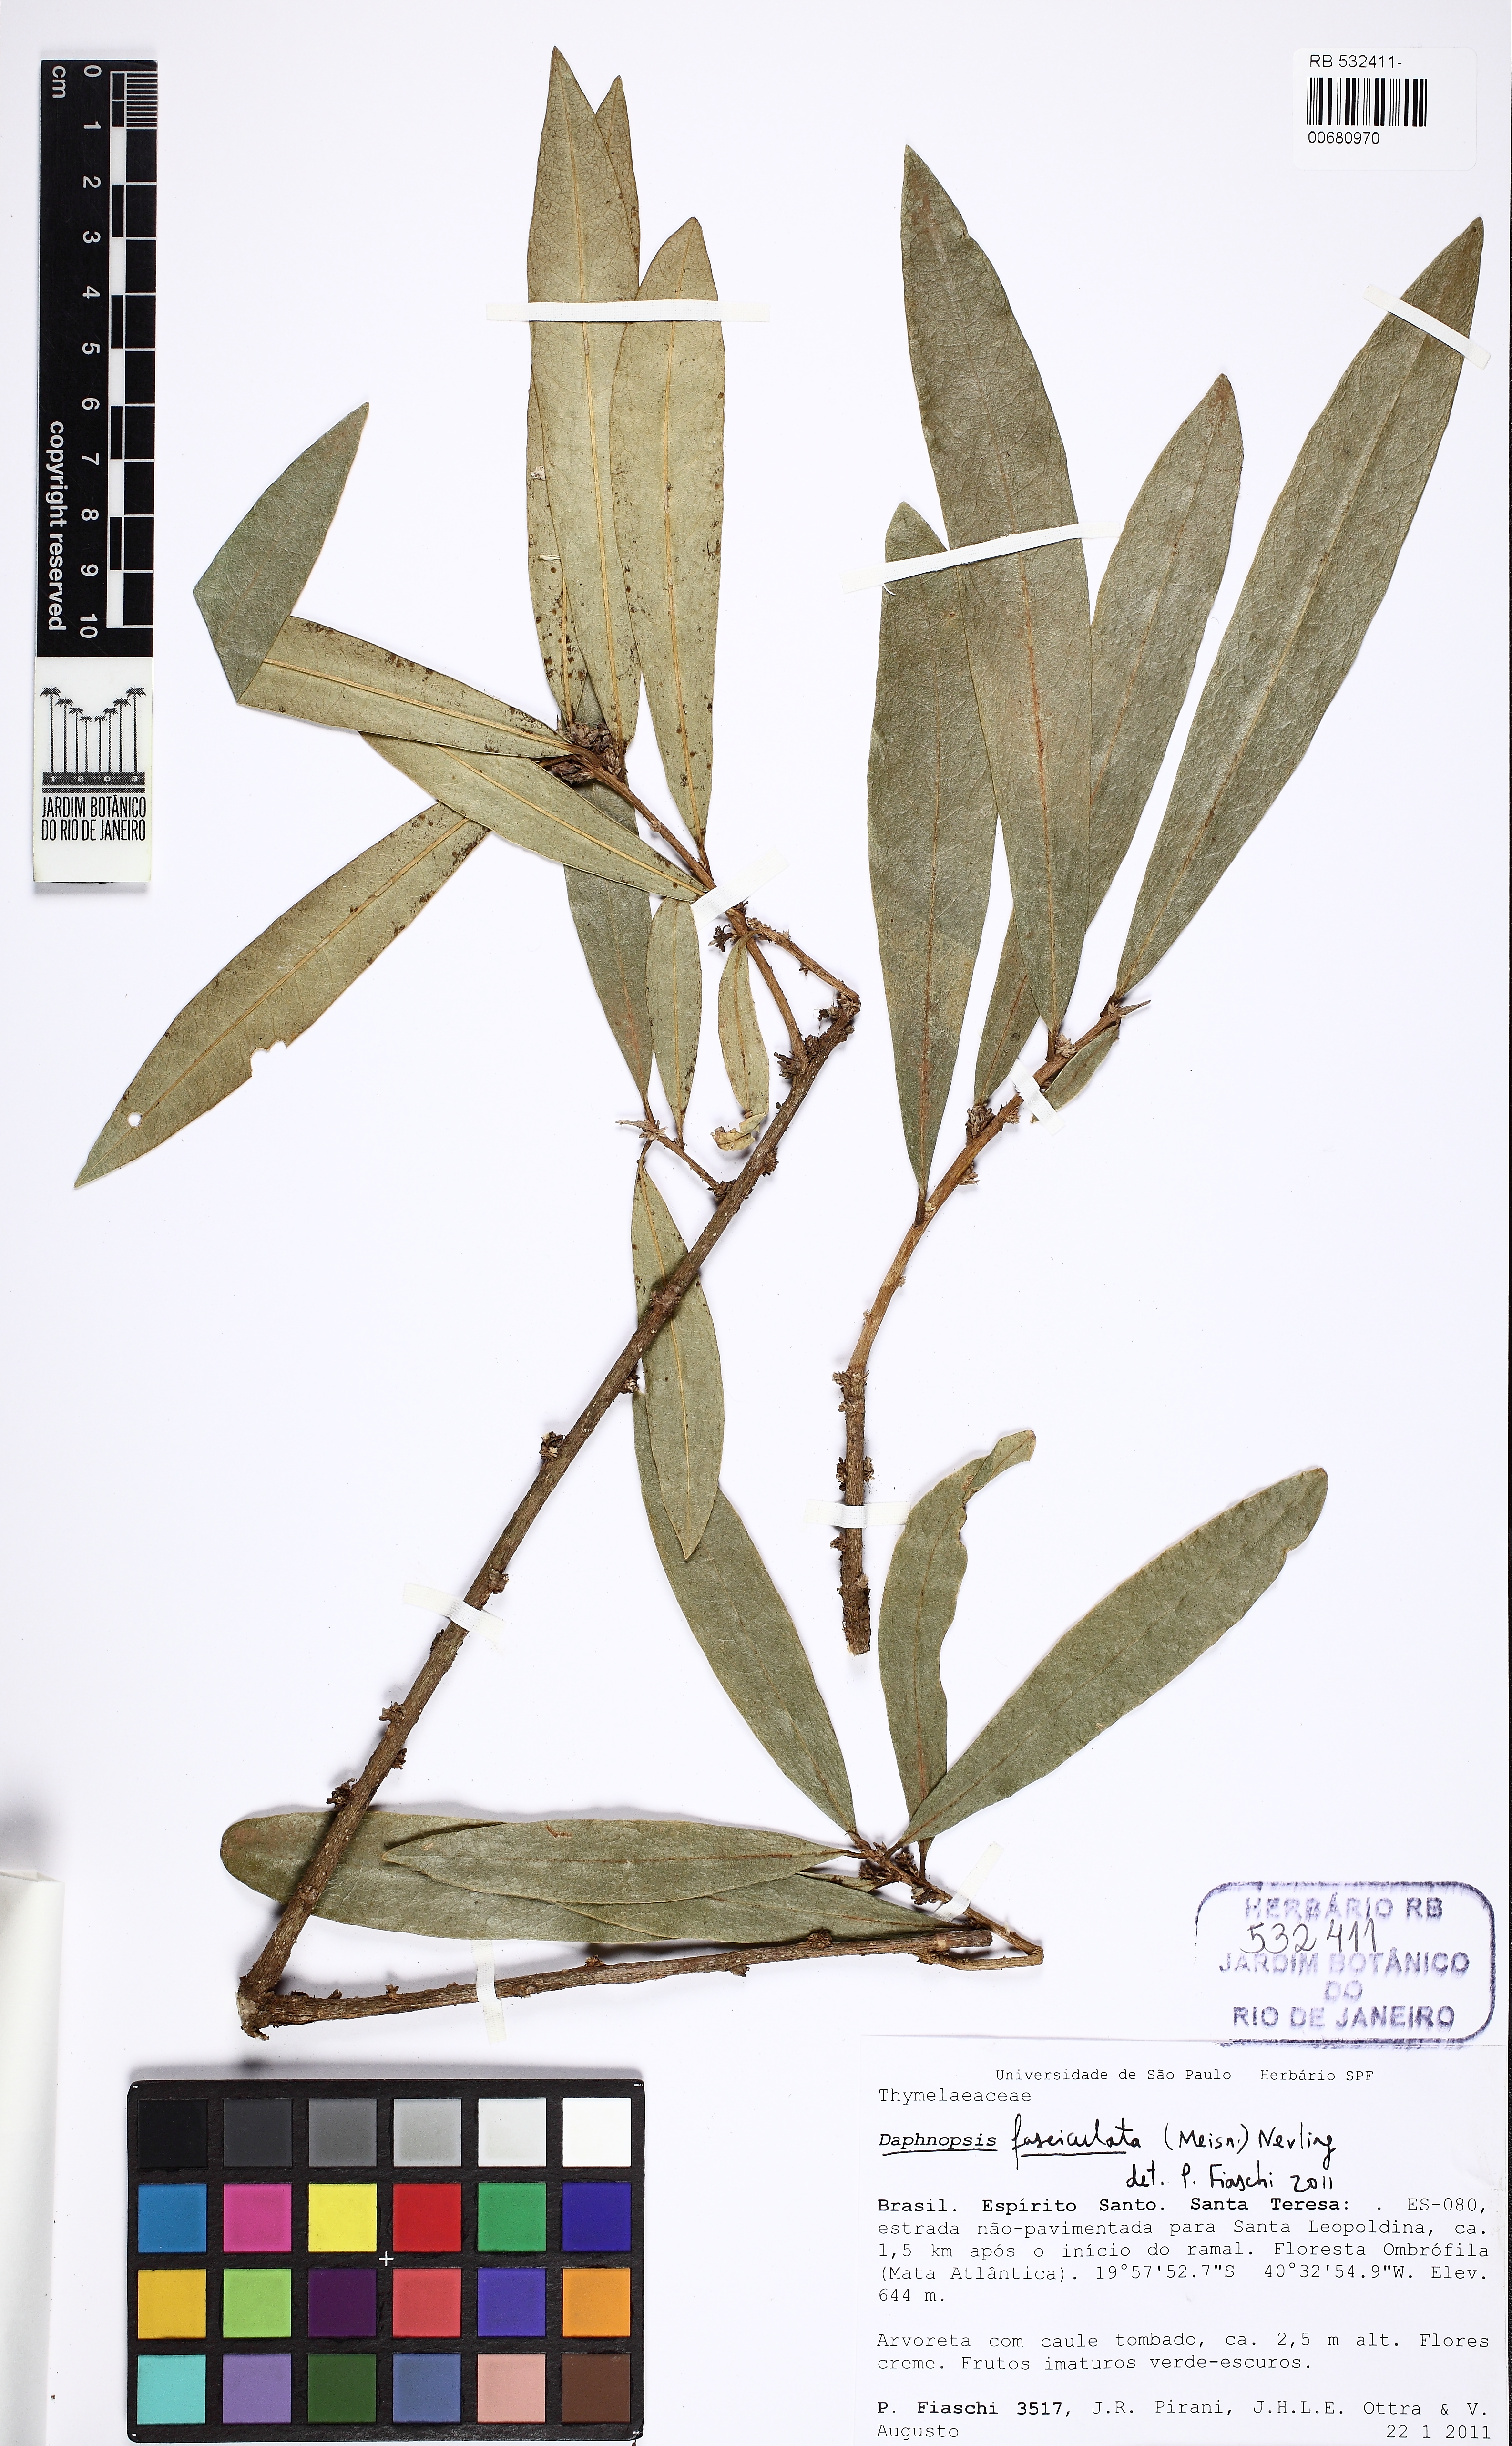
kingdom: Plantae
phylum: Tracheophyta
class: Magnoliopsida
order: Malvales
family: Thymelaeaceae
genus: Daphnopsis
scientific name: Daphnopsis fasciculata
